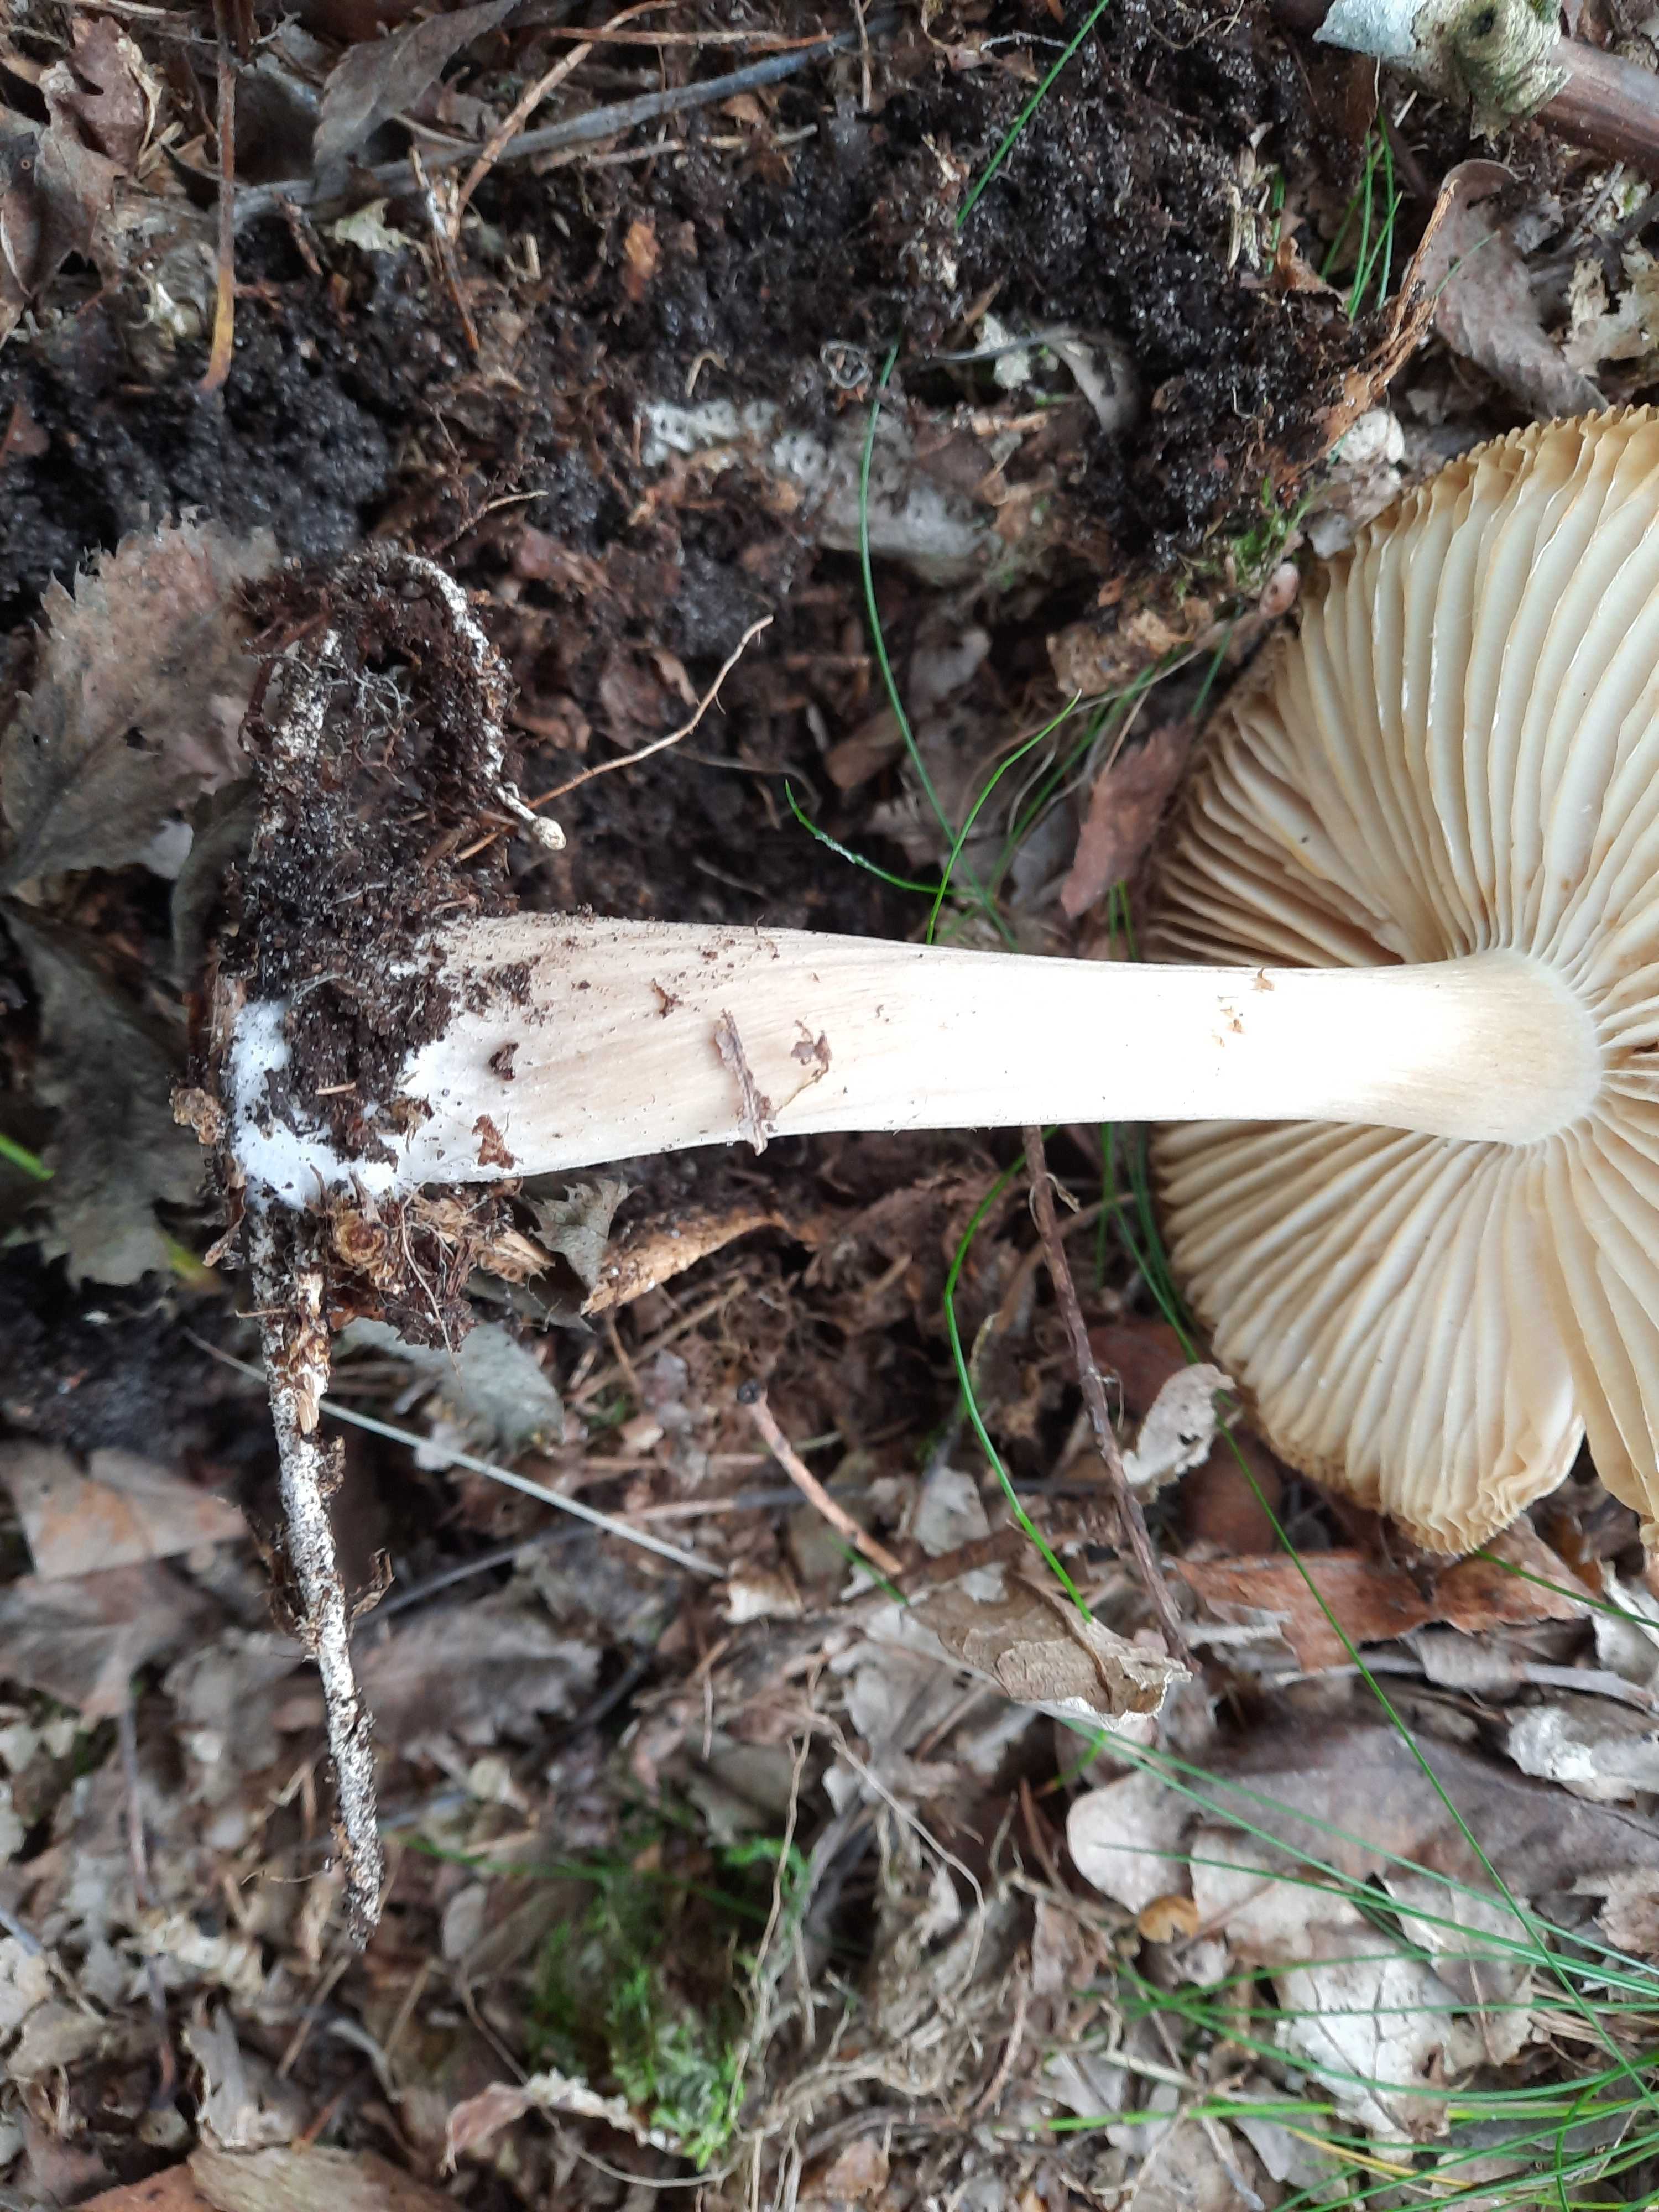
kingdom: Fungi
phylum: Basidiomycota
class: Agaricomycetes
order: Agaricales
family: Tricholomataceae
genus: Megacollybia
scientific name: Megacollybia platyphylla
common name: bredbladet væbnerhat
